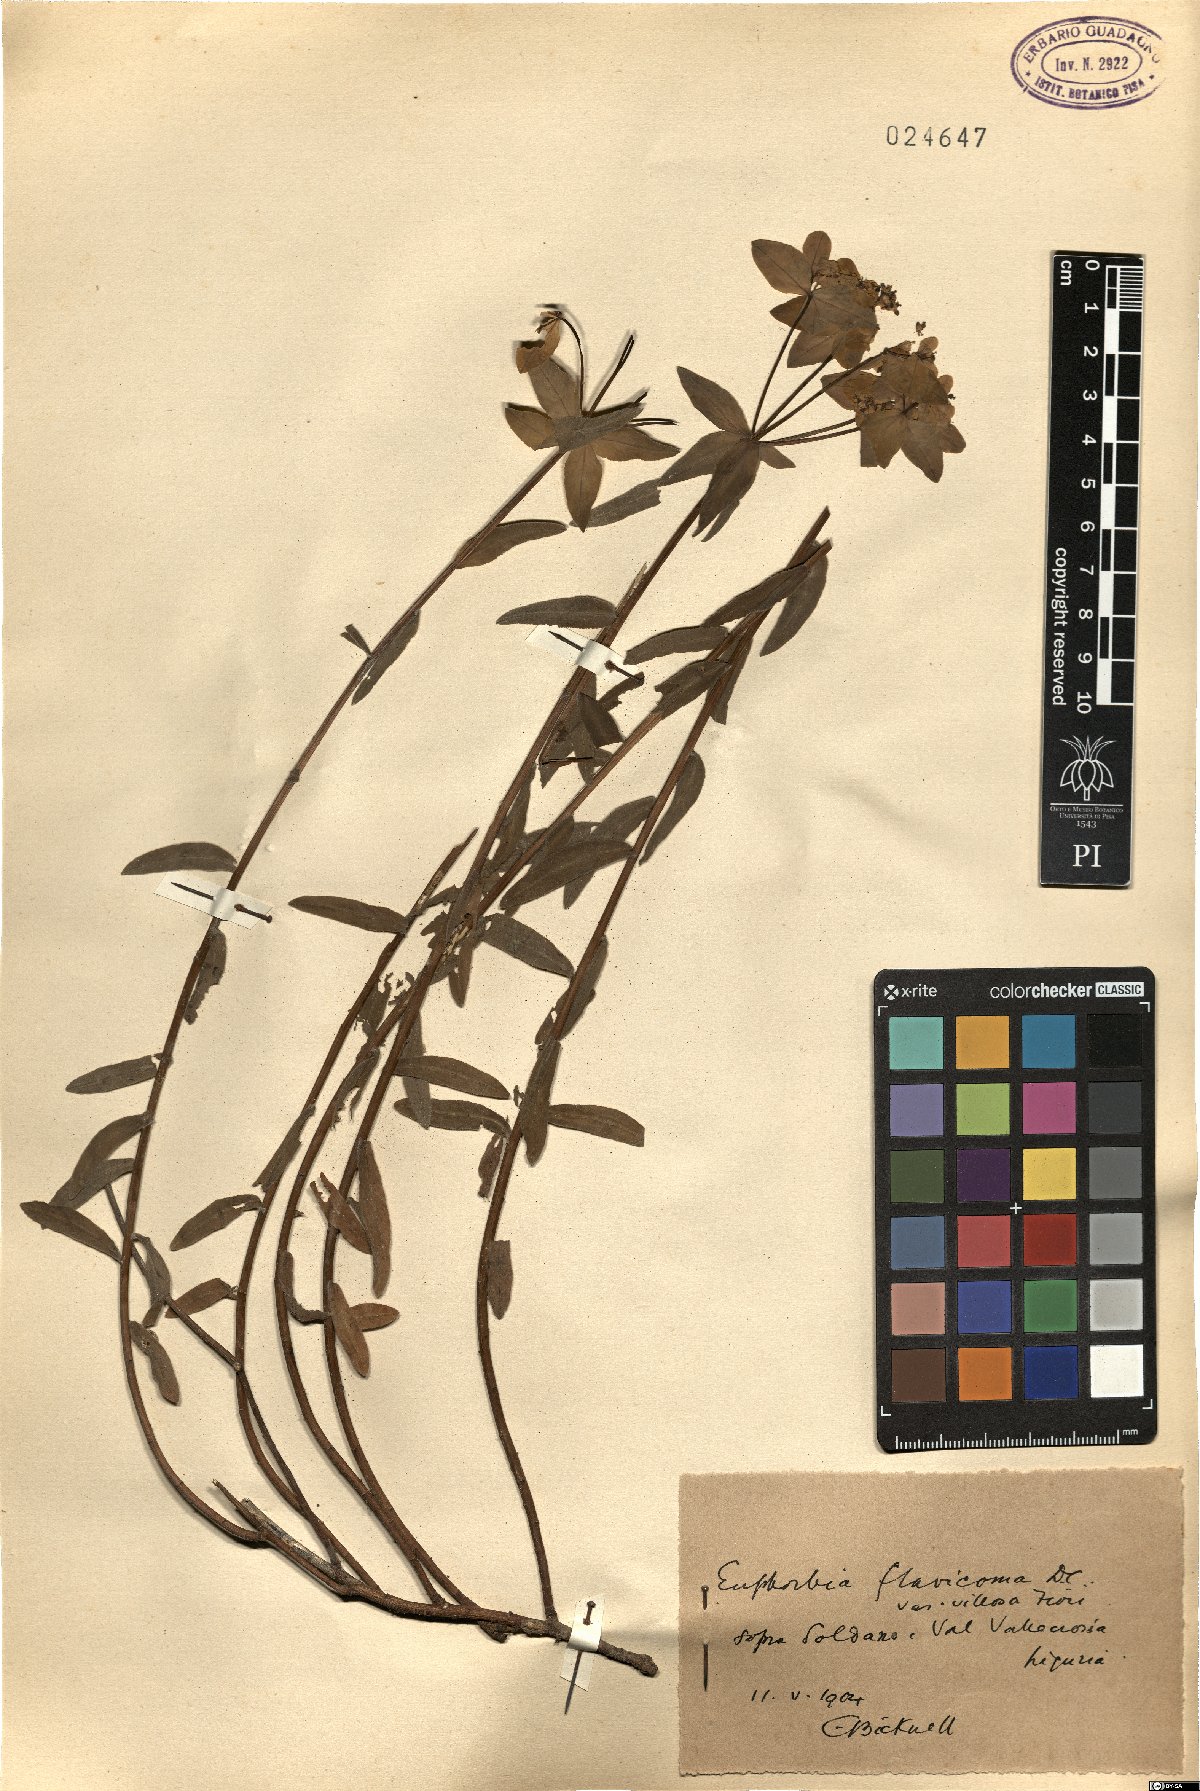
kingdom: Plantae
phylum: Tracheophyta
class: Magnoliopsida
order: Malpighiales
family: Euphorbiaceae
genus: Euphorbia
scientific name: Euphorbia flavicoma
